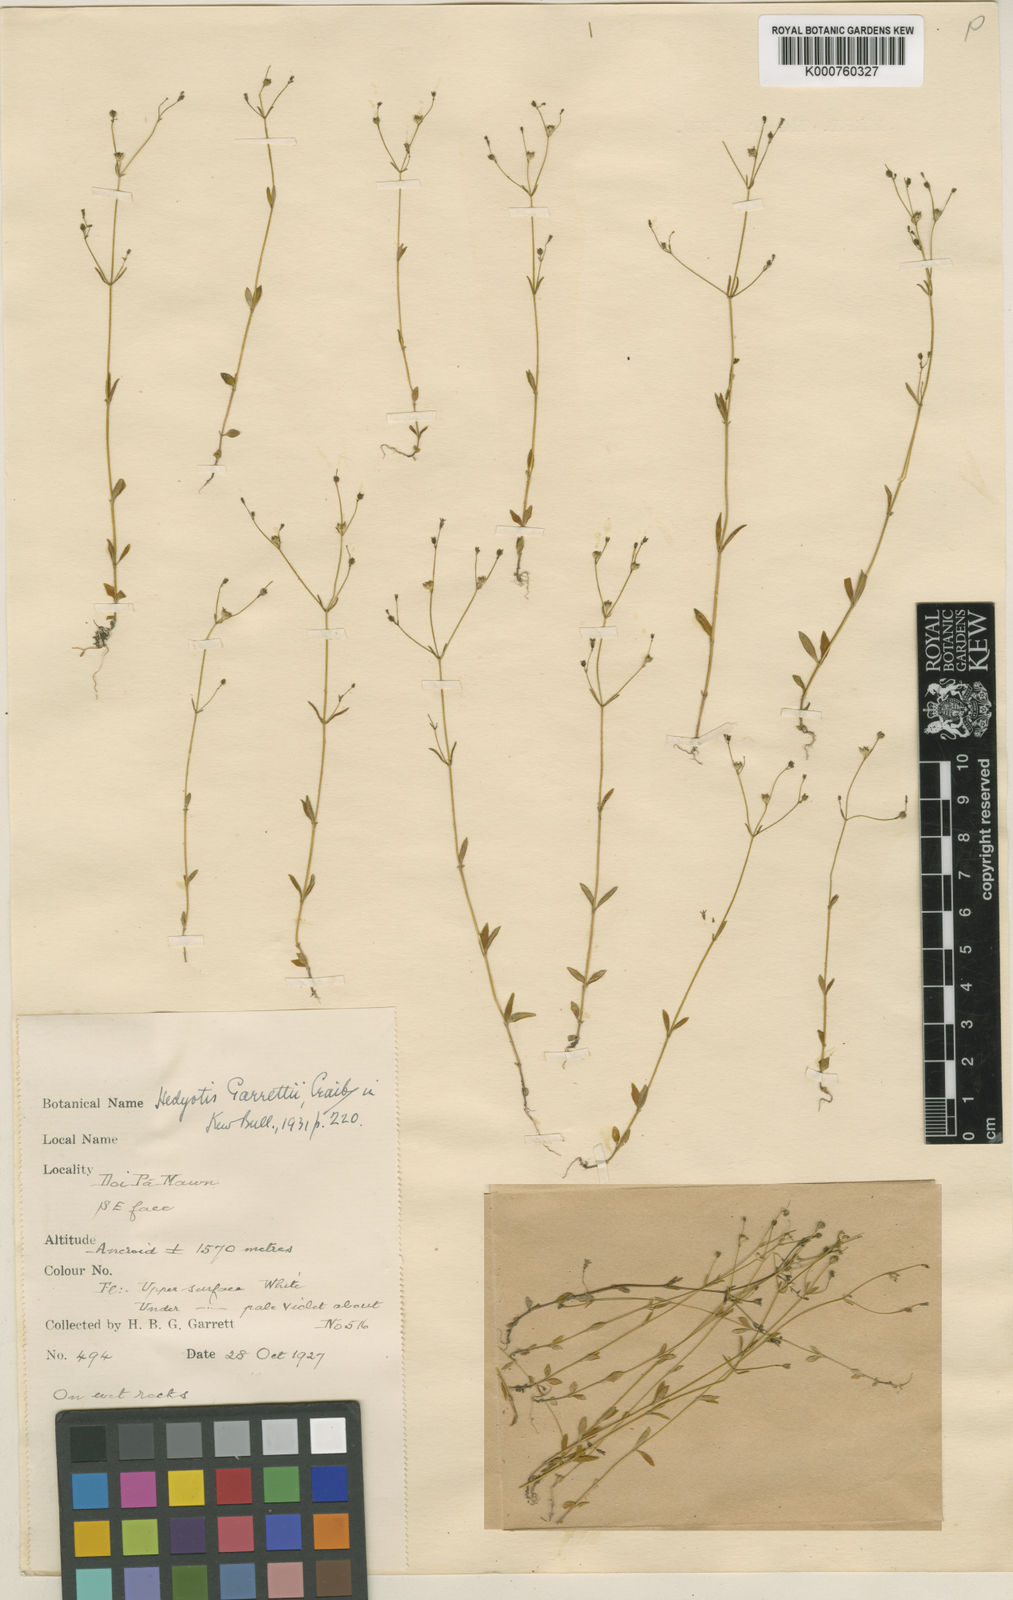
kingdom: Plantae
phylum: Tracheophyta
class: Magnoliopsida
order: Gentianales
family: Rubiaceae
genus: Hedyotis
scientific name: Hedyotis garrettii
